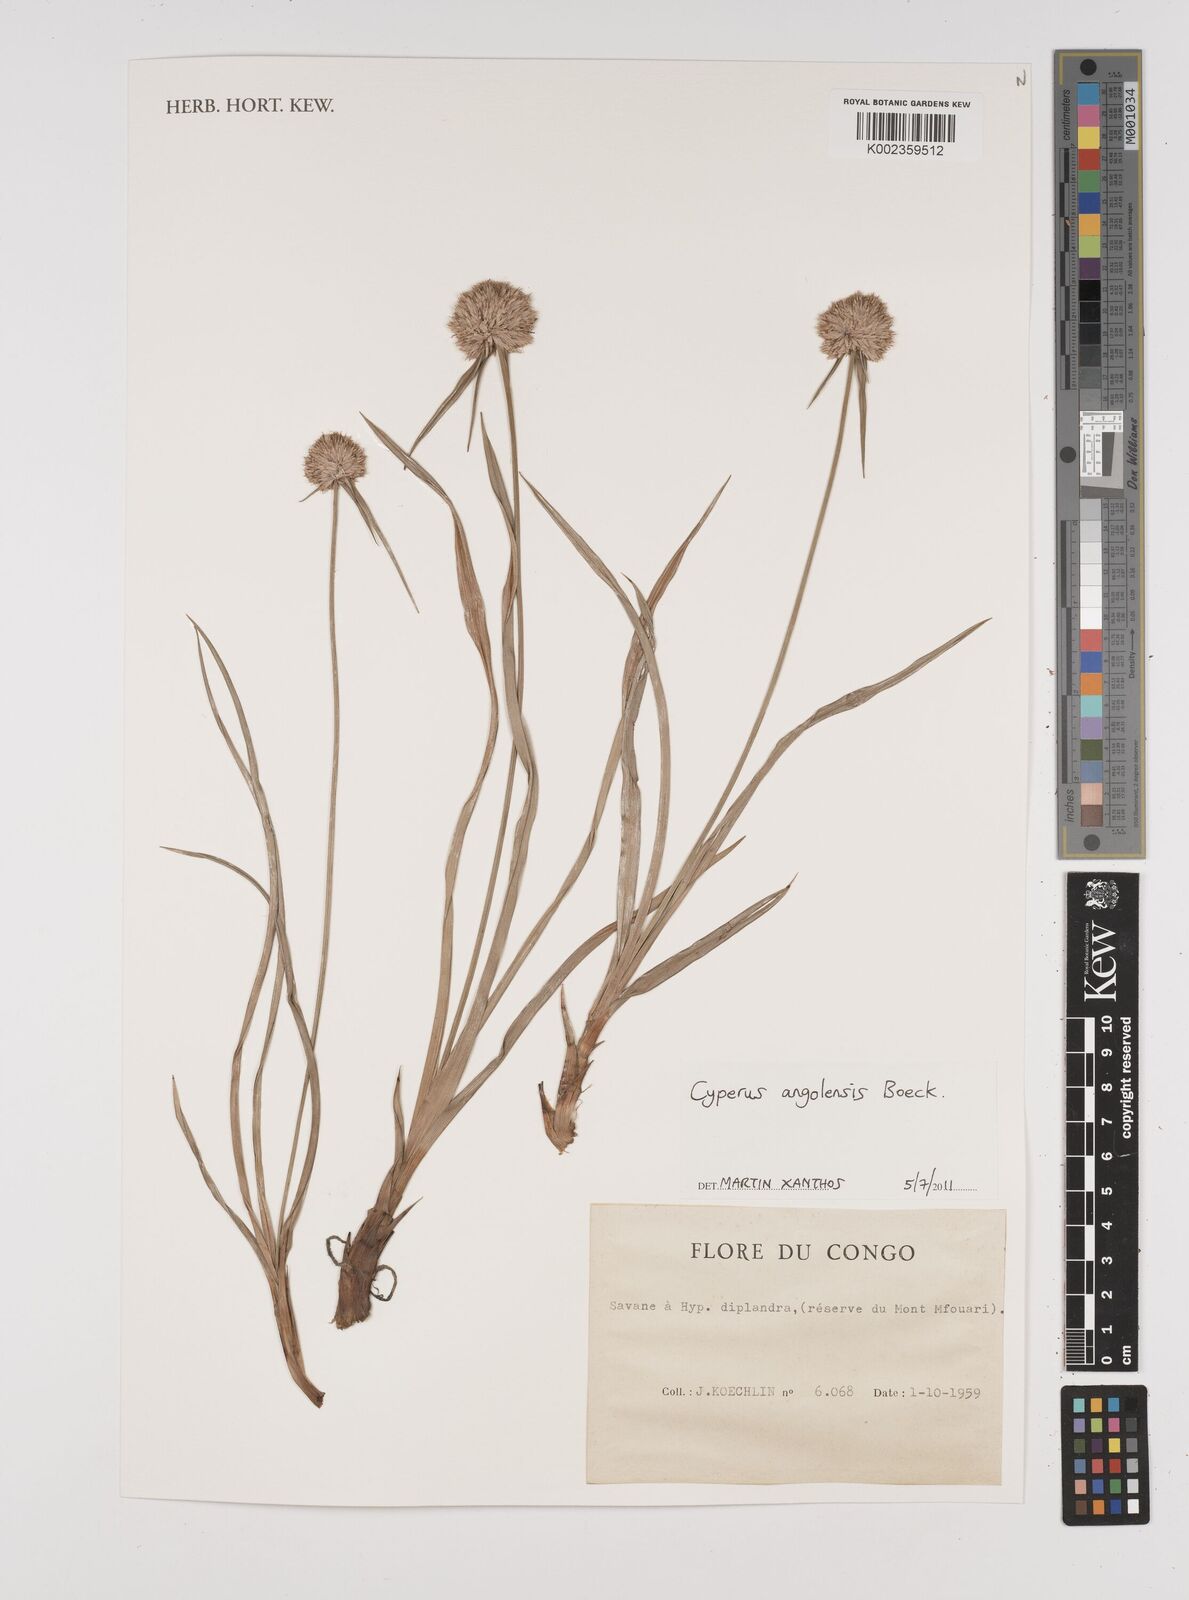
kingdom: Plantae
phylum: Tracheophyta
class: Liliopsida
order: Poales
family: Cyperaceae
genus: Cyperus
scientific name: Cyperus angolensis
